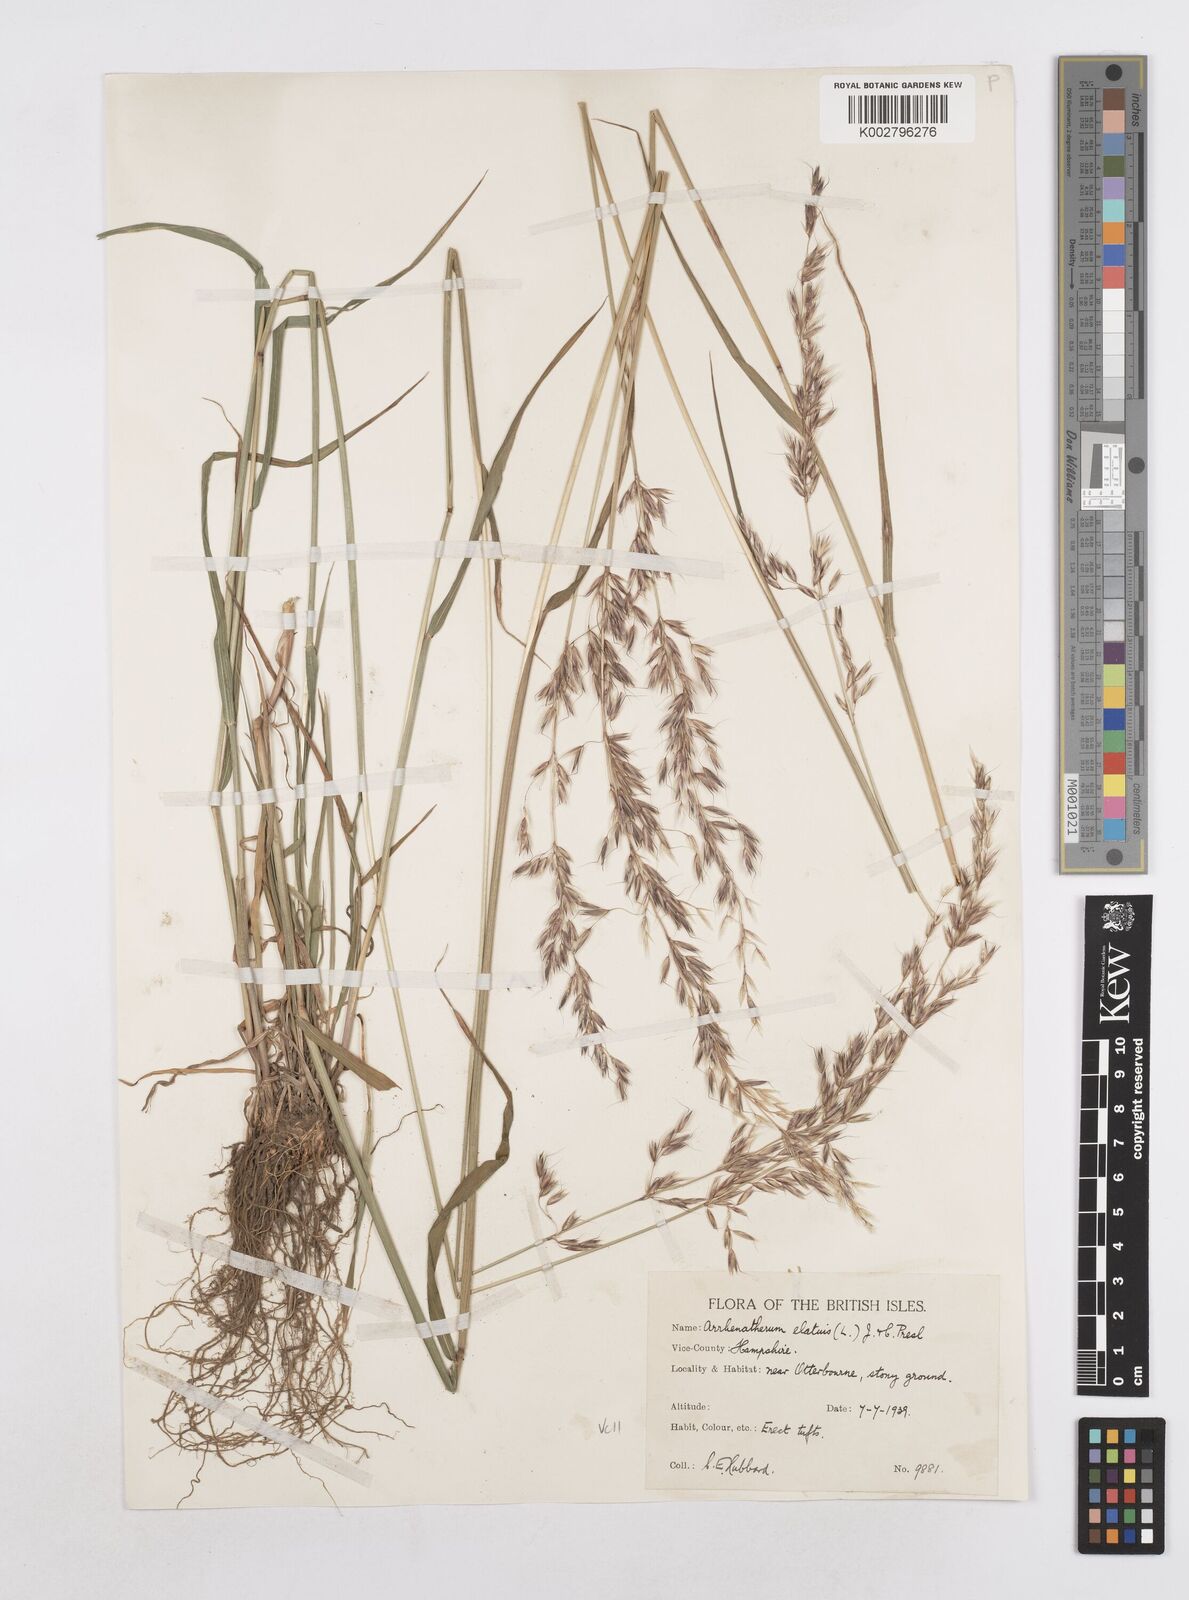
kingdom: Plantae
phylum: Tracheophyta
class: Liliopsida
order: Poales
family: Poaceae
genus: Arrhenatherum
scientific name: Arrhenatherum elatius
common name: Tall oatgrass
